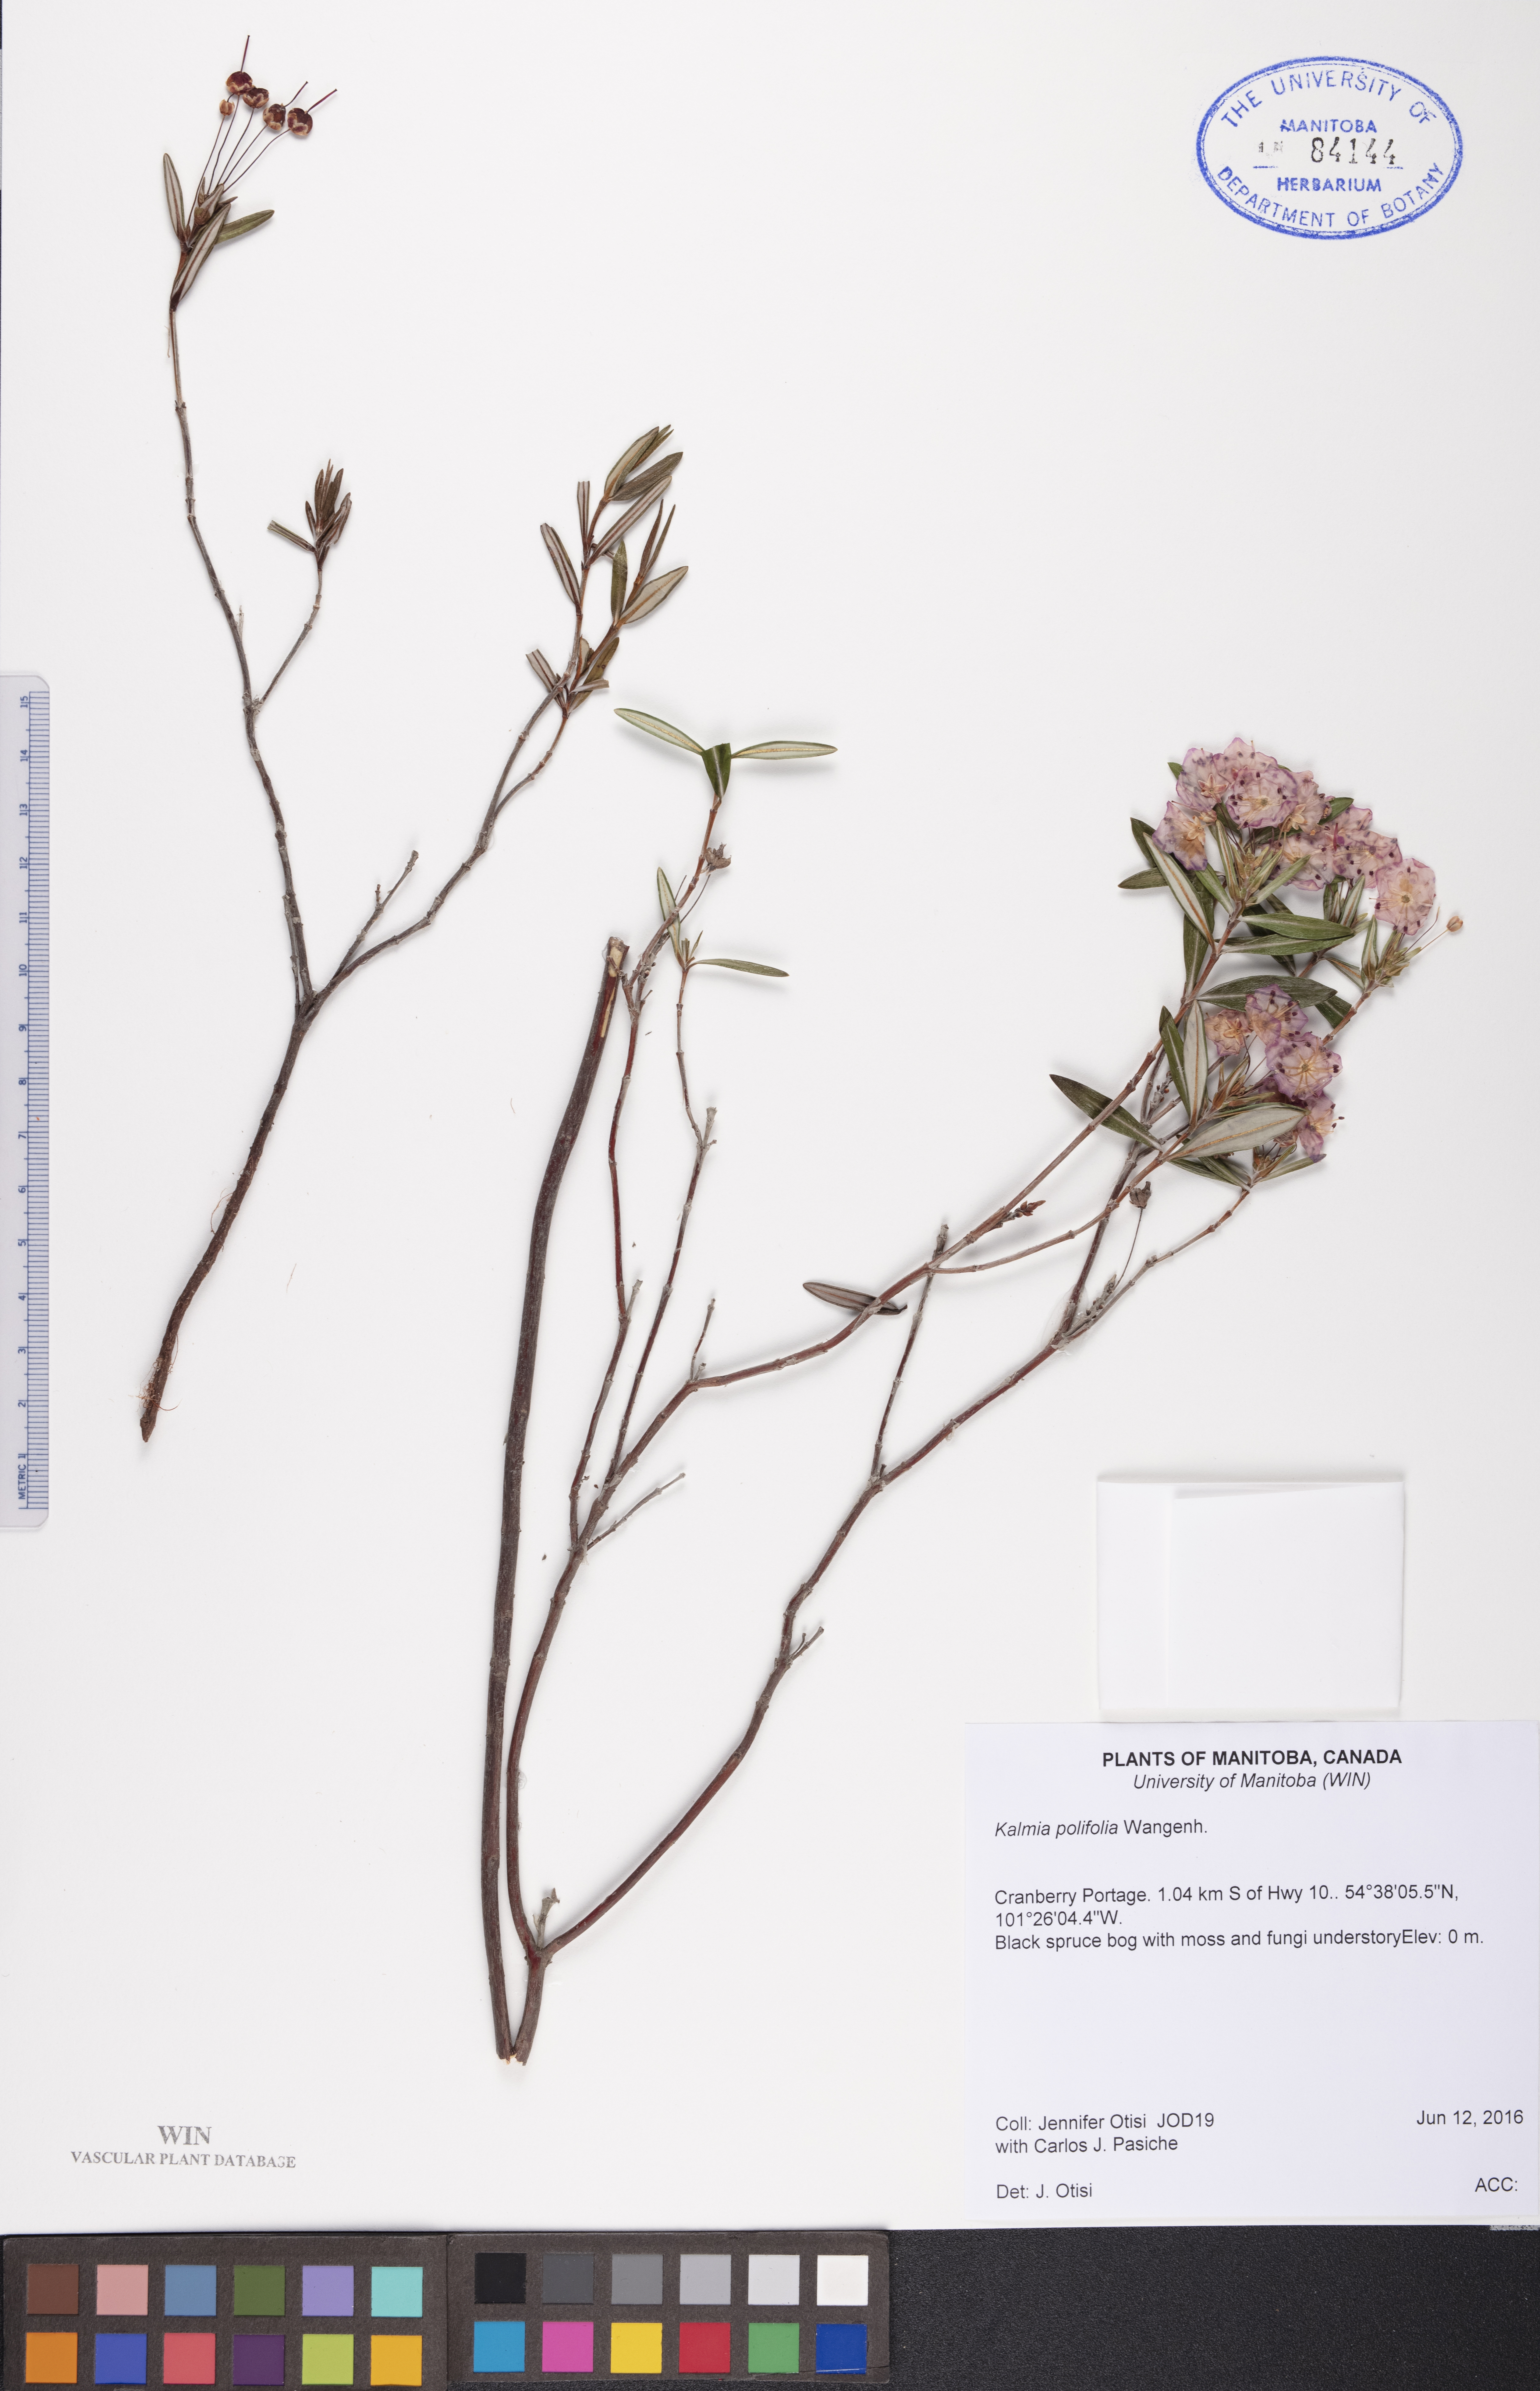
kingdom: Plantae
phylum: Tracheophyta
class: Magnoliopsida
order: Ericales
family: Ericaceae
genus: Kalmia
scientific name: Kalmia polifolia
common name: Bog-laurel
